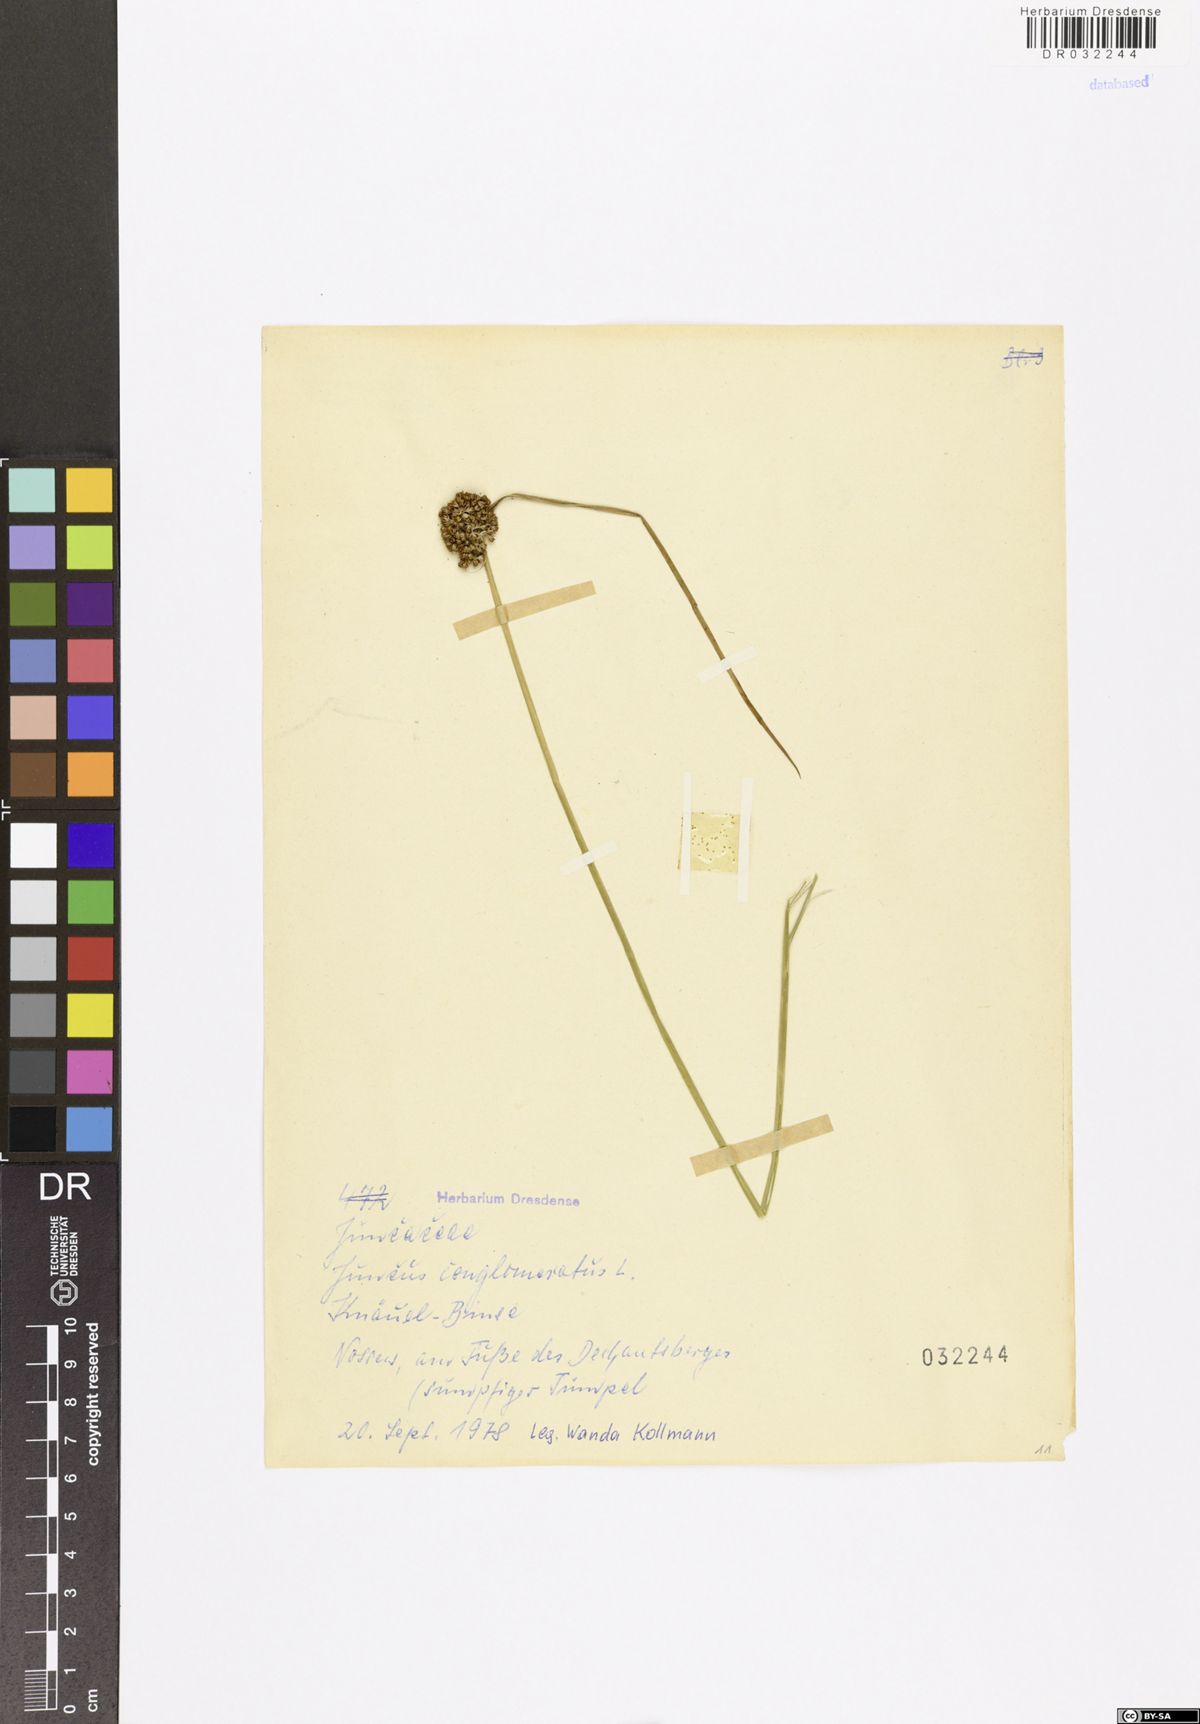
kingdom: Plantae
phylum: Tracheophyta
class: Liliopsida
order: Poales
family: Juncaceae
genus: Juncus
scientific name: Juncus conglomeratus
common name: Compact rush
